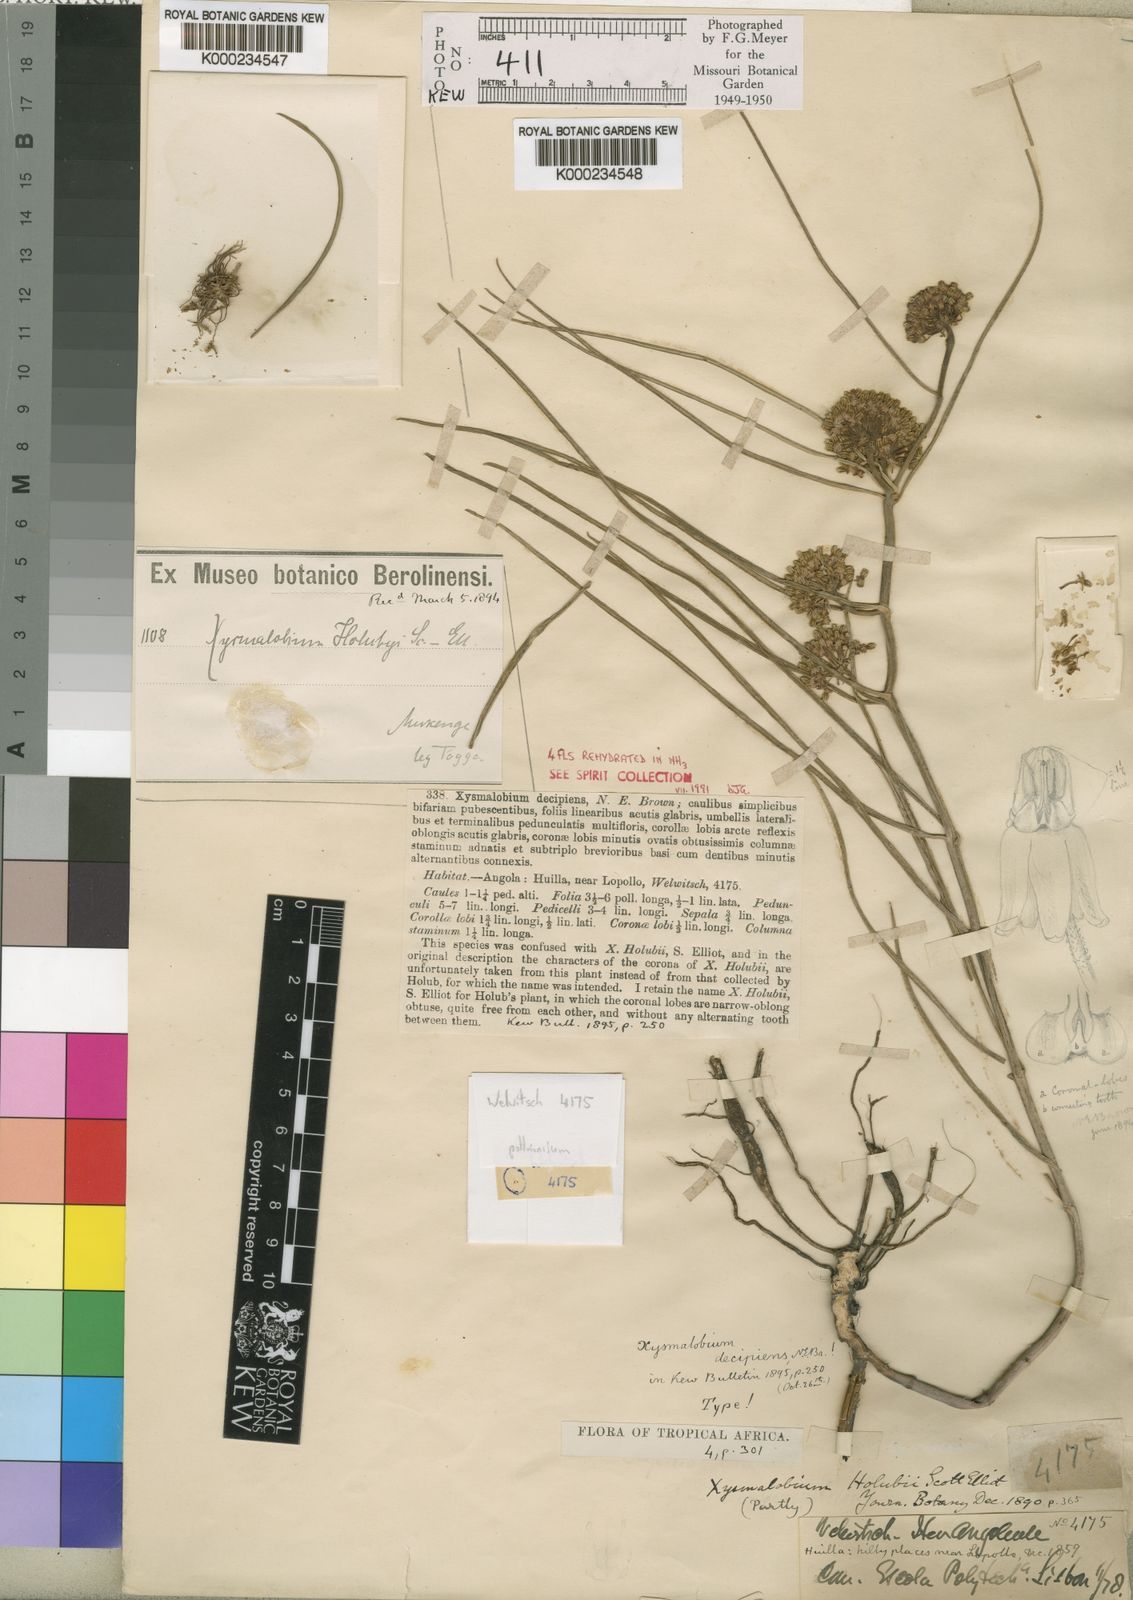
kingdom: Plantae
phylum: Tracheophyta
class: Magnoliopsida
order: Gentianales
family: Apocynaceae
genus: Xysmalobium
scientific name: Xysmalobium holubii
